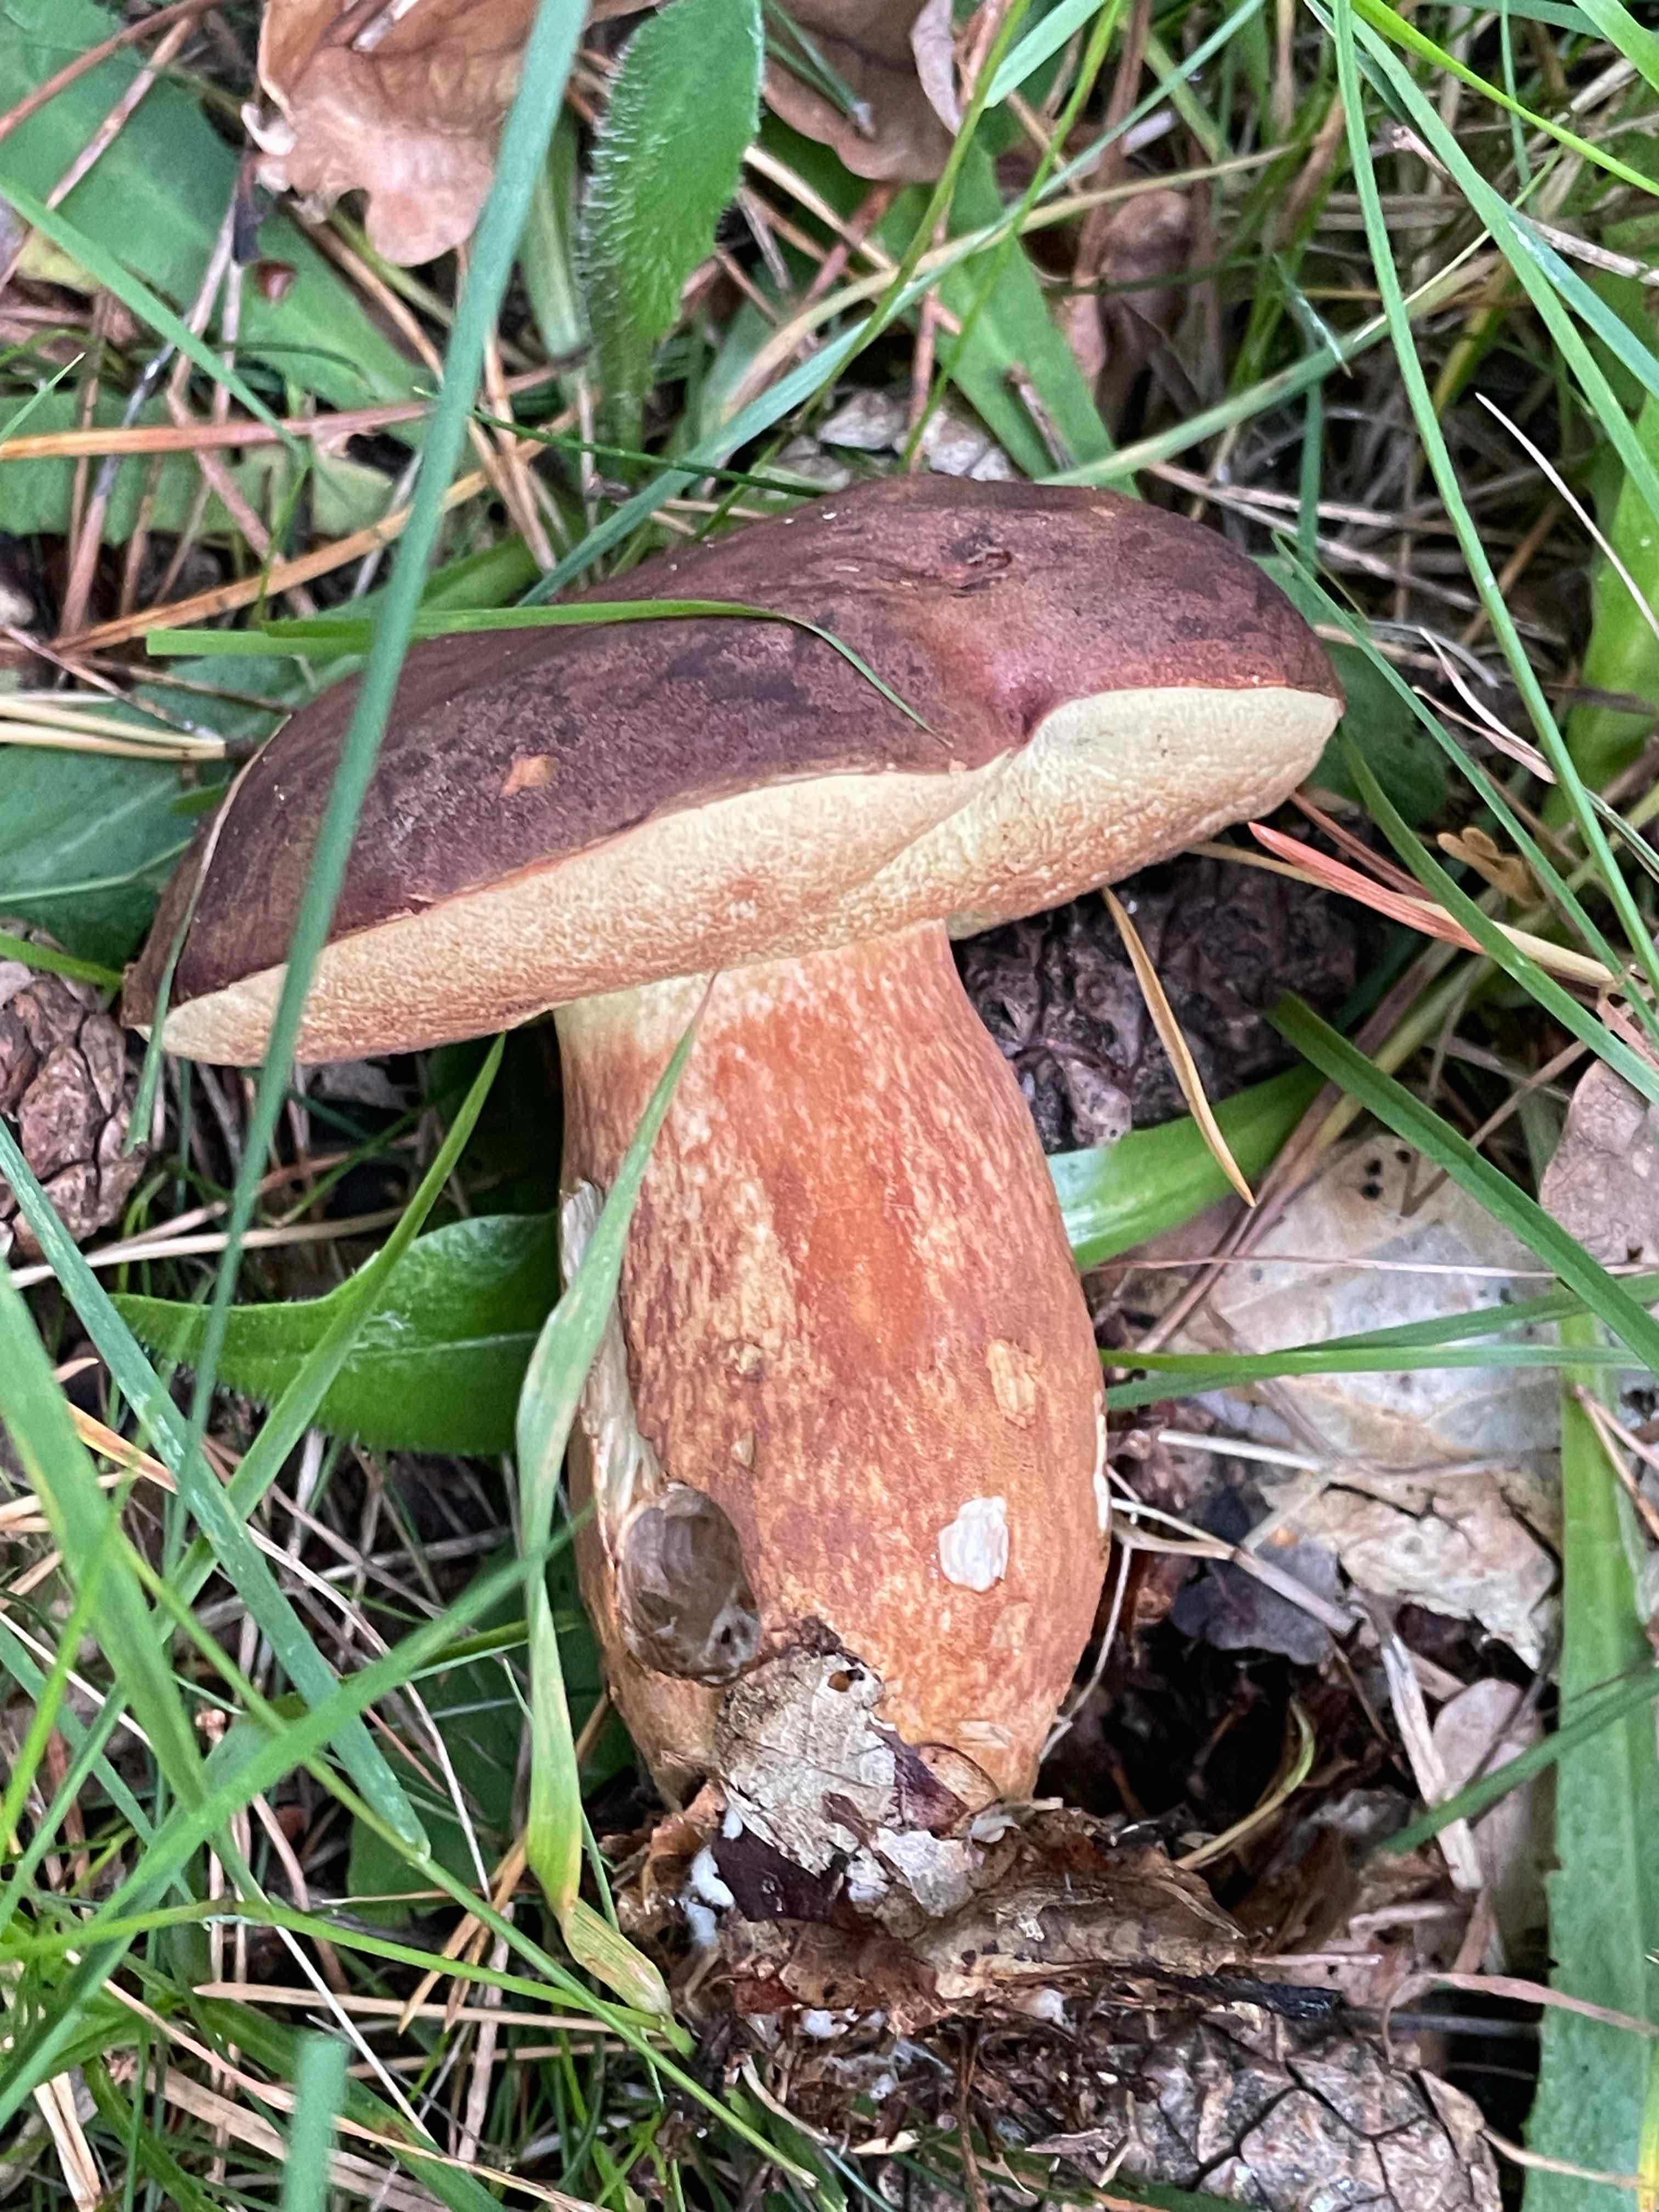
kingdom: Fungi
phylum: Basidiomycota
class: Agaricomycetes
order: Boletales
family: Boletaceae
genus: Imleria
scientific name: Imleria badia
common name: brunstokket rørhat
